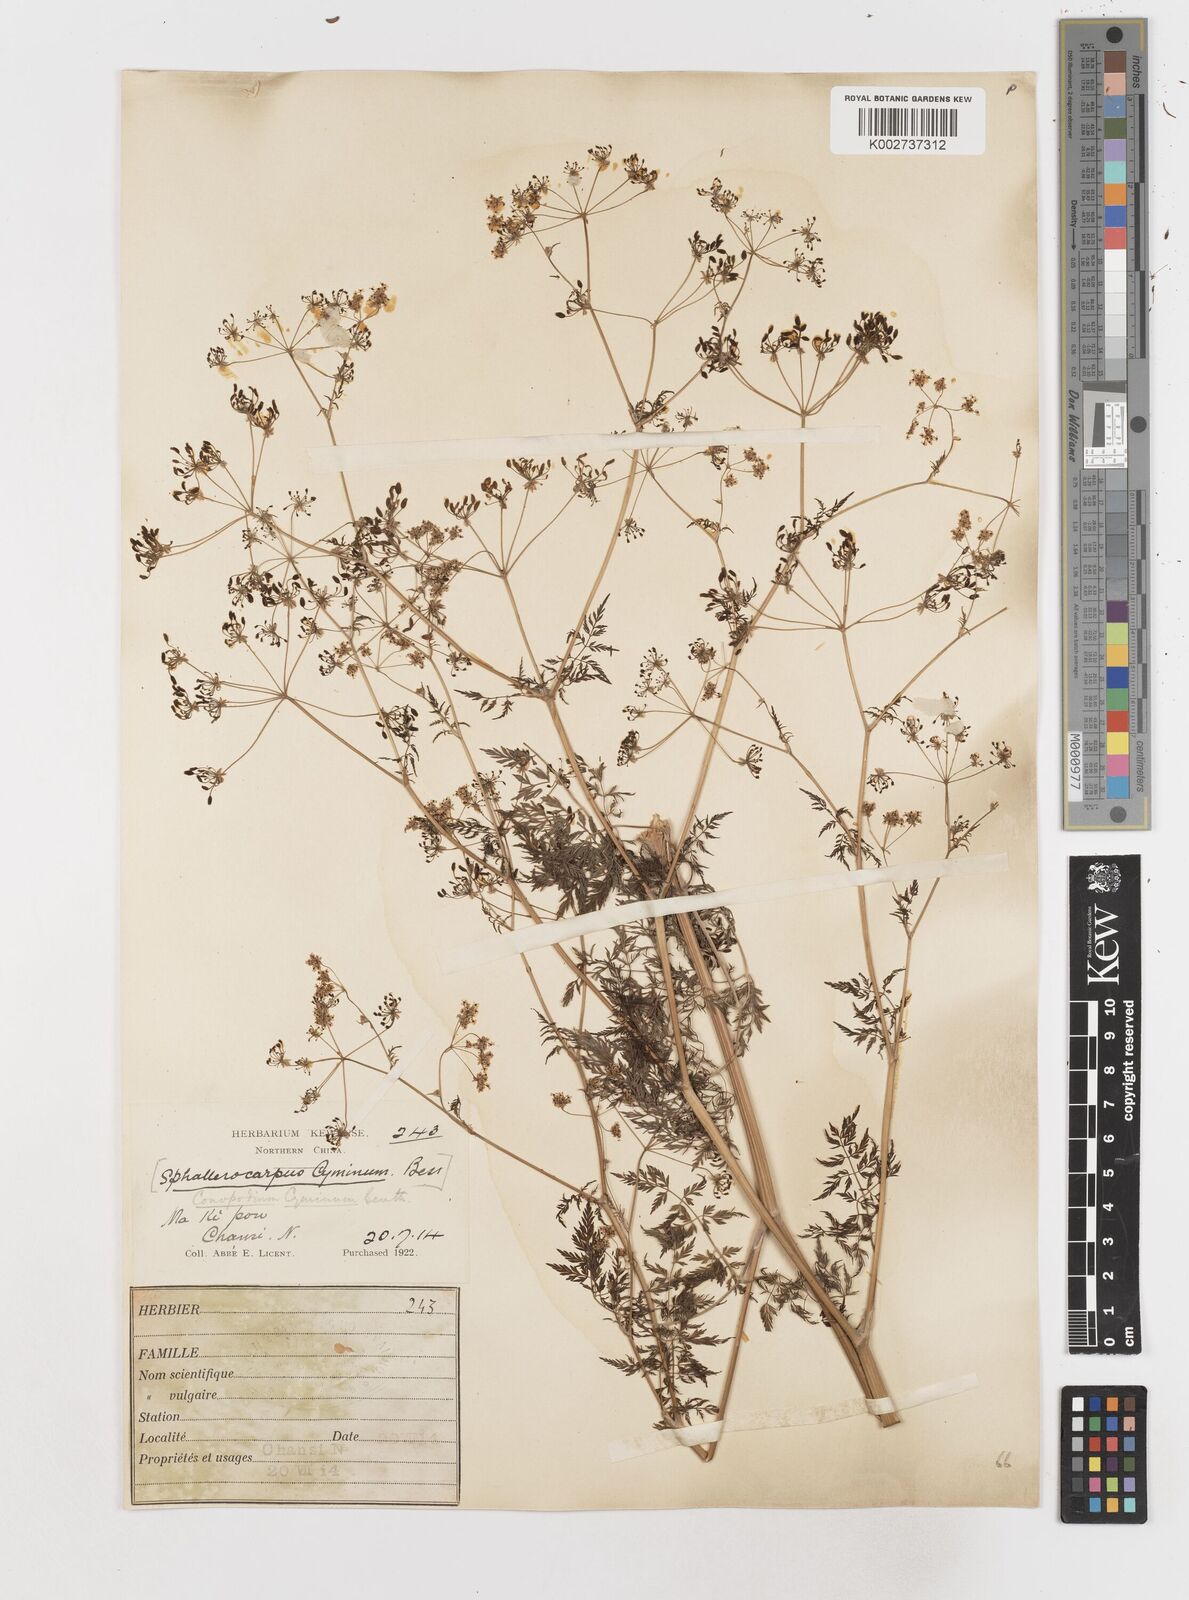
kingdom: Plantae
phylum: Tracheophyta
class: Magnoliopsida
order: Apiales
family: Apiaceae
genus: Sphallerocarpus
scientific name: Sphallerocarpus gracilis
